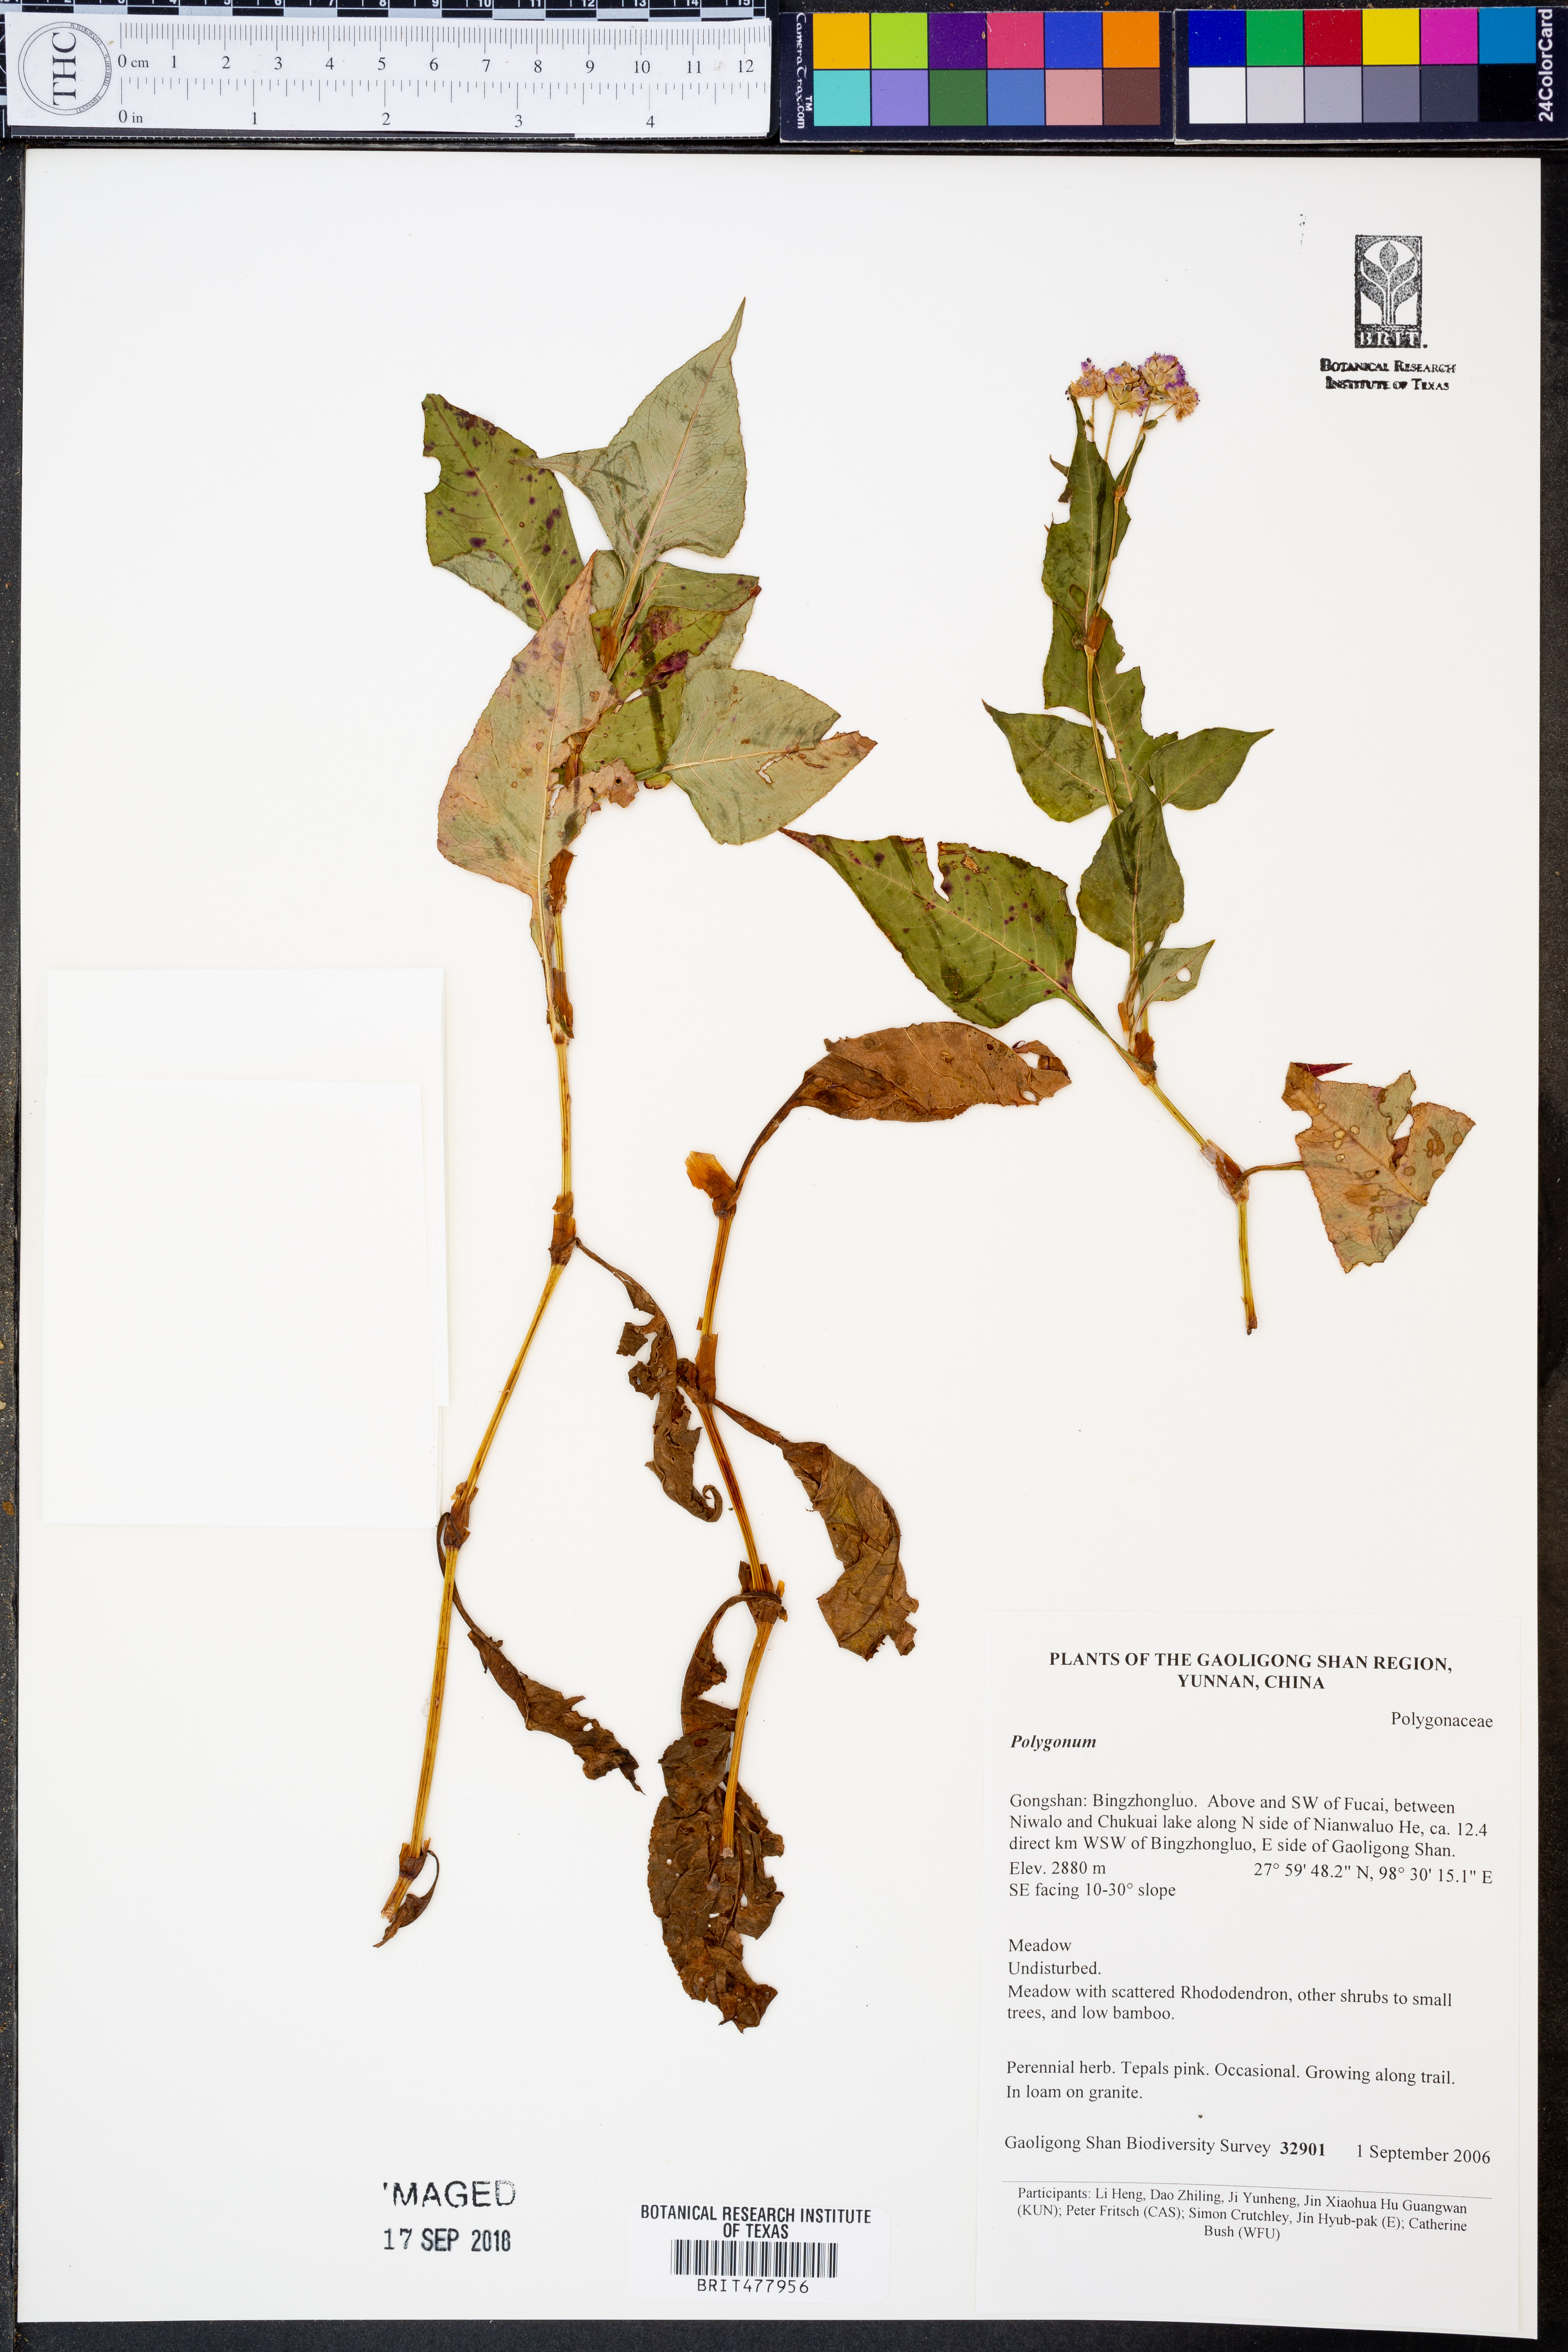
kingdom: Plantae
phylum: Tracheophyta
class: Magnoliopsida
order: Caryophyllales
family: Polygonaceae
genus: Polygonum
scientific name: Polygonum
